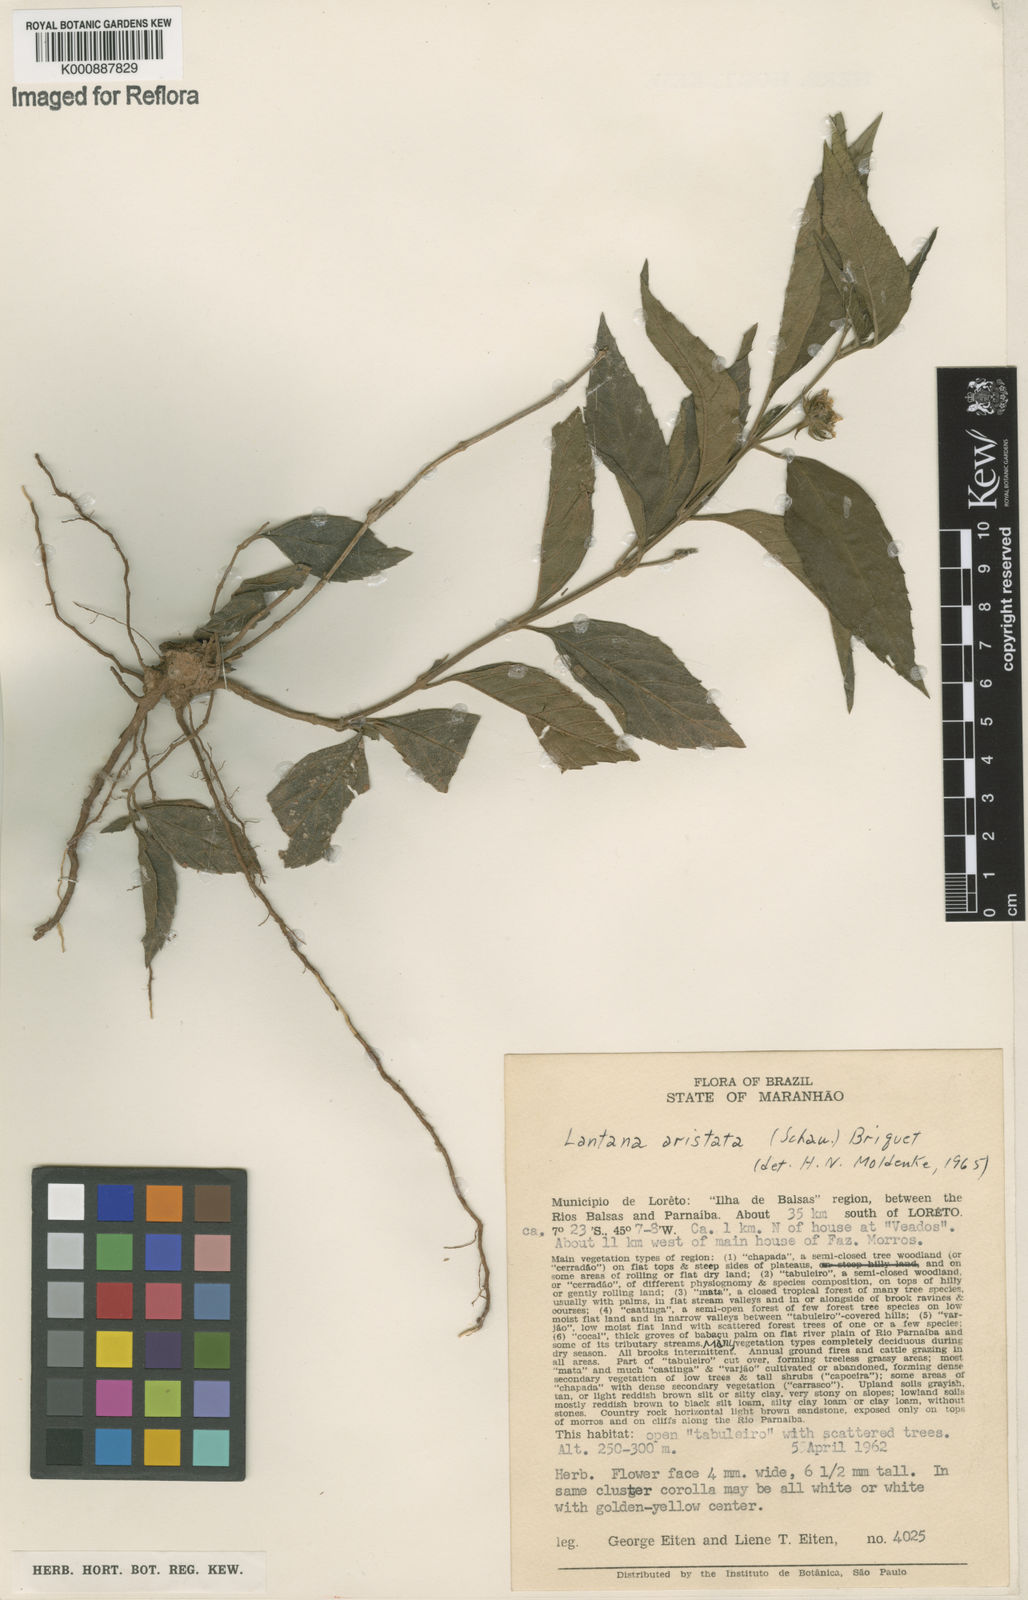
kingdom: Plantae
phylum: Tracheophyta
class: Magnoliopsida
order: Lamiales
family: Verbenaceae
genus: Lippia
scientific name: Lippia aristata
